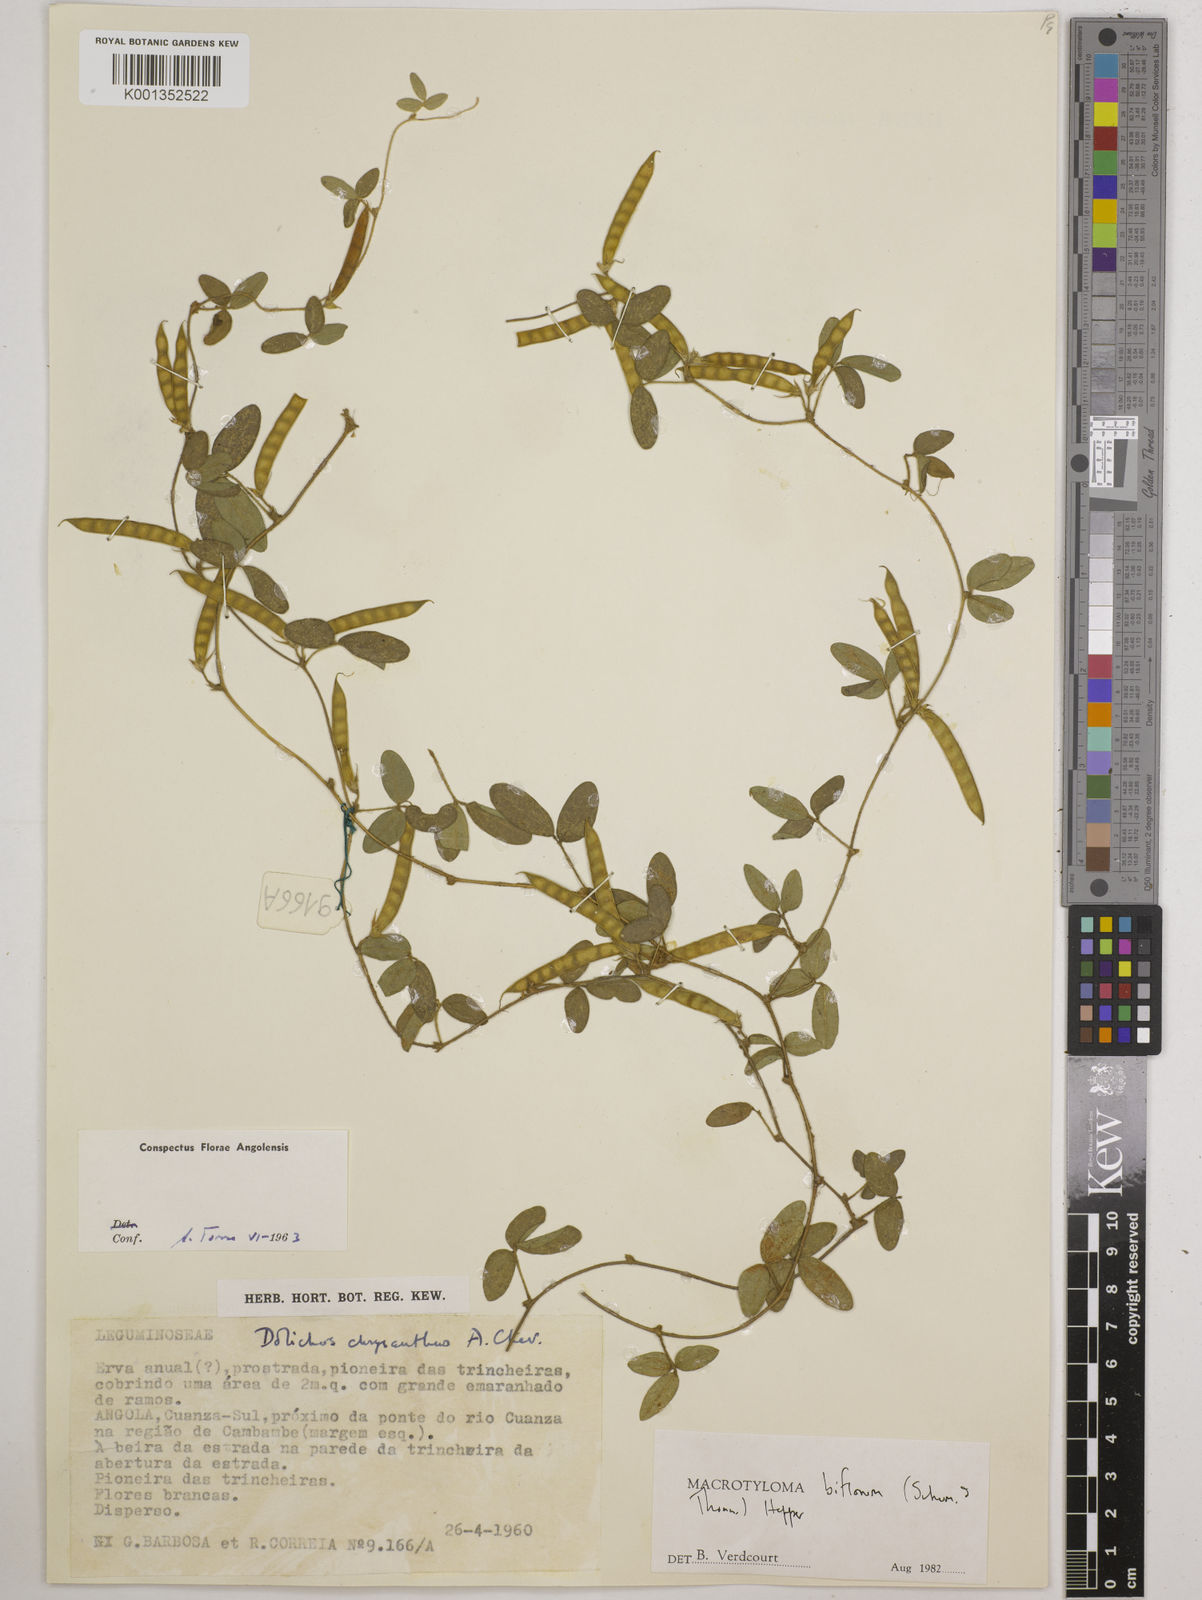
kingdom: Plantae
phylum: Tracheophyta
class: Magnoliopsida
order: Fabales
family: Fabaceae
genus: Macrotyloma
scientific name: Macrotyloma biflorum
